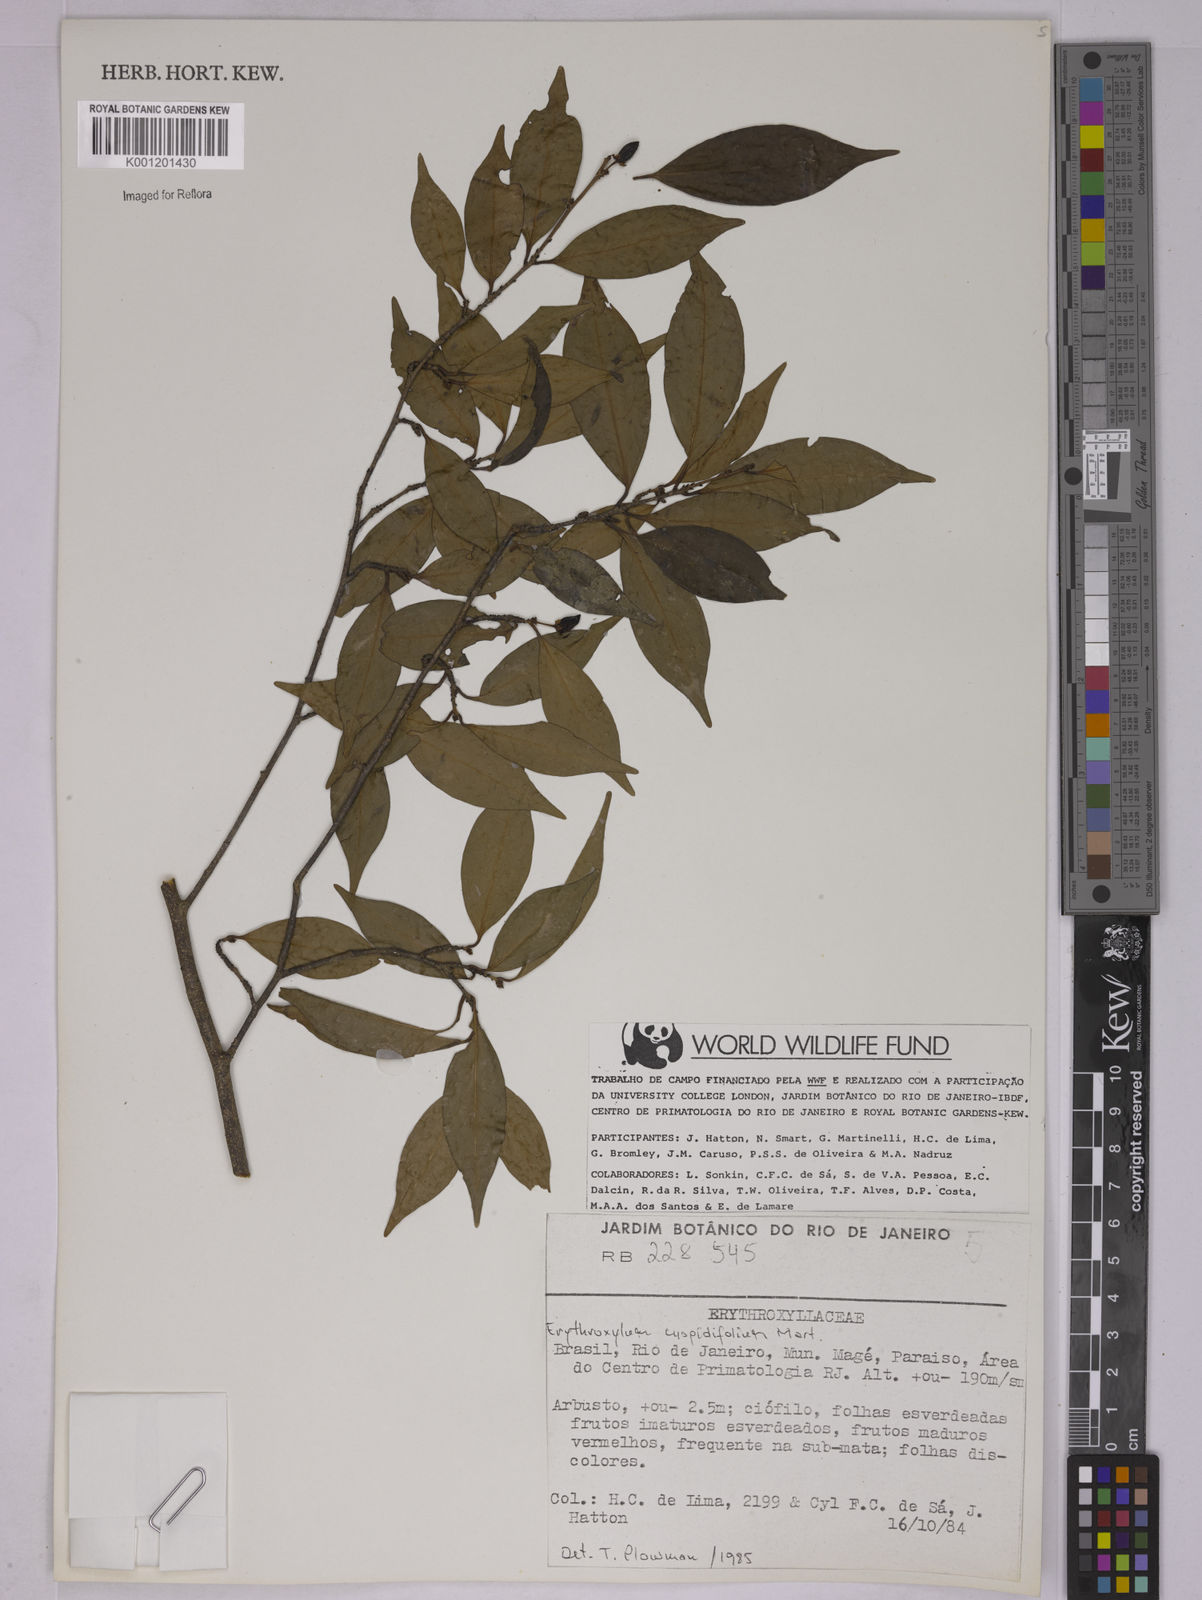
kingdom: Plantae
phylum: Tracheophyta
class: Magnoliopsida
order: Malpighiales
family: Erythroxylaceae
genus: Erythroxylum
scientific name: Erythroxylum cuspidifolium
